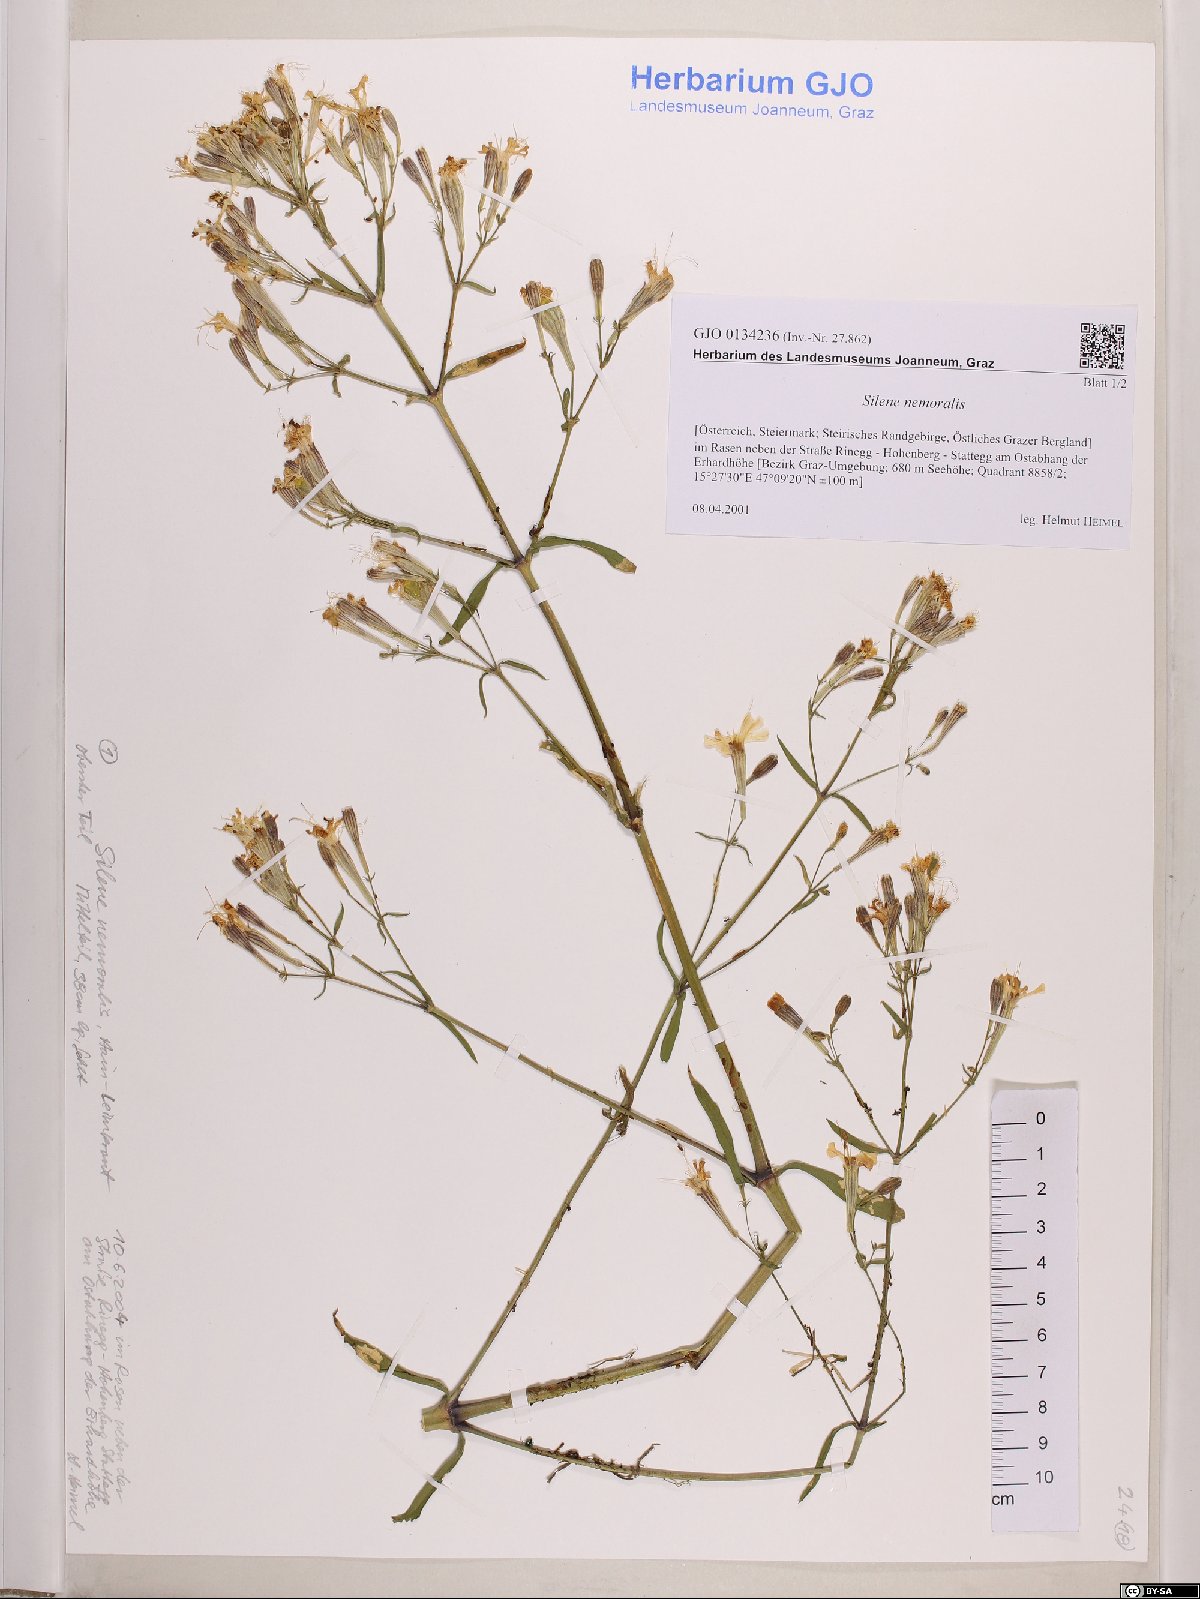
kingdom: Plantae
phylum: Tracheophyta
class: Magnoliopsida
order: Caryophyllales
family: Caryophyllaceae
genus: Silene
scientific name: Silene nemoralis
